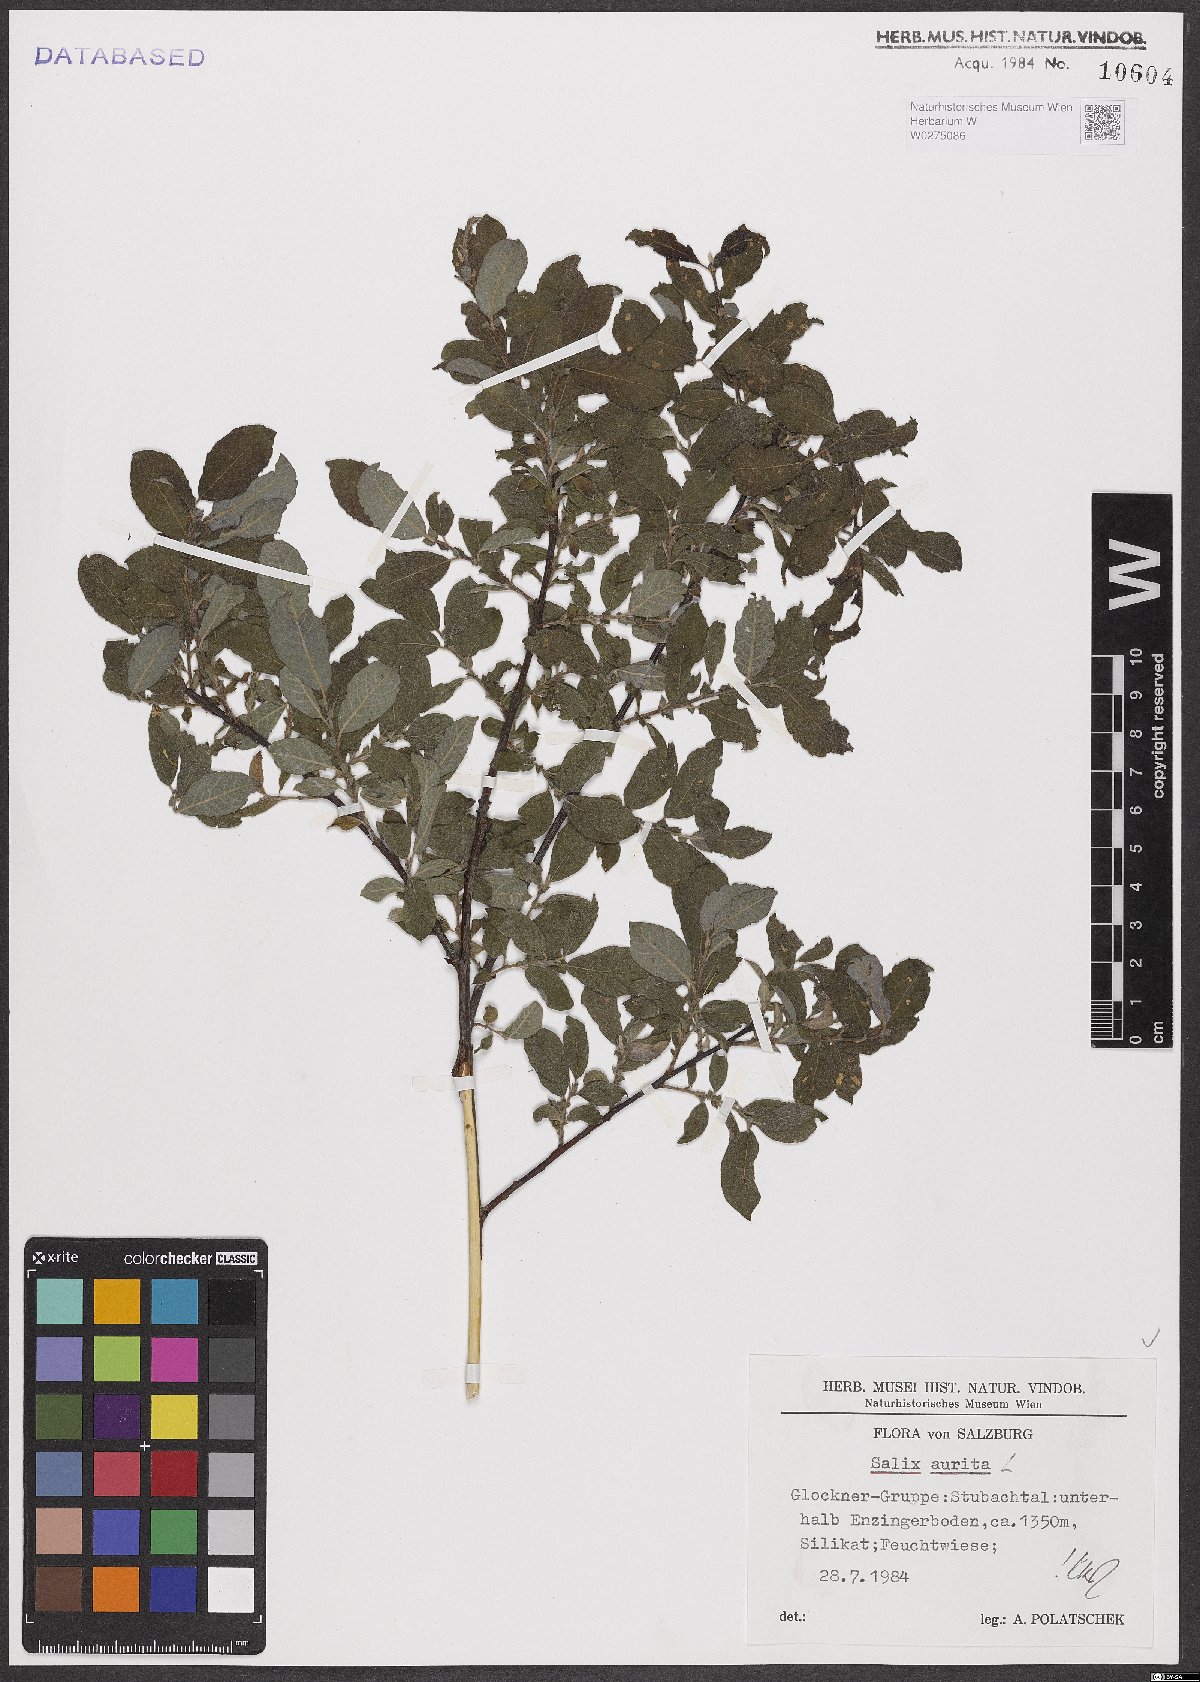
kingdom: Plantae
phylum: Tracheophyta
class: Magnoliopsida
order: Malpighiales
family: Salicaceae
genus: Salix
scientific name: Salix aurita
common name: Eared willow
